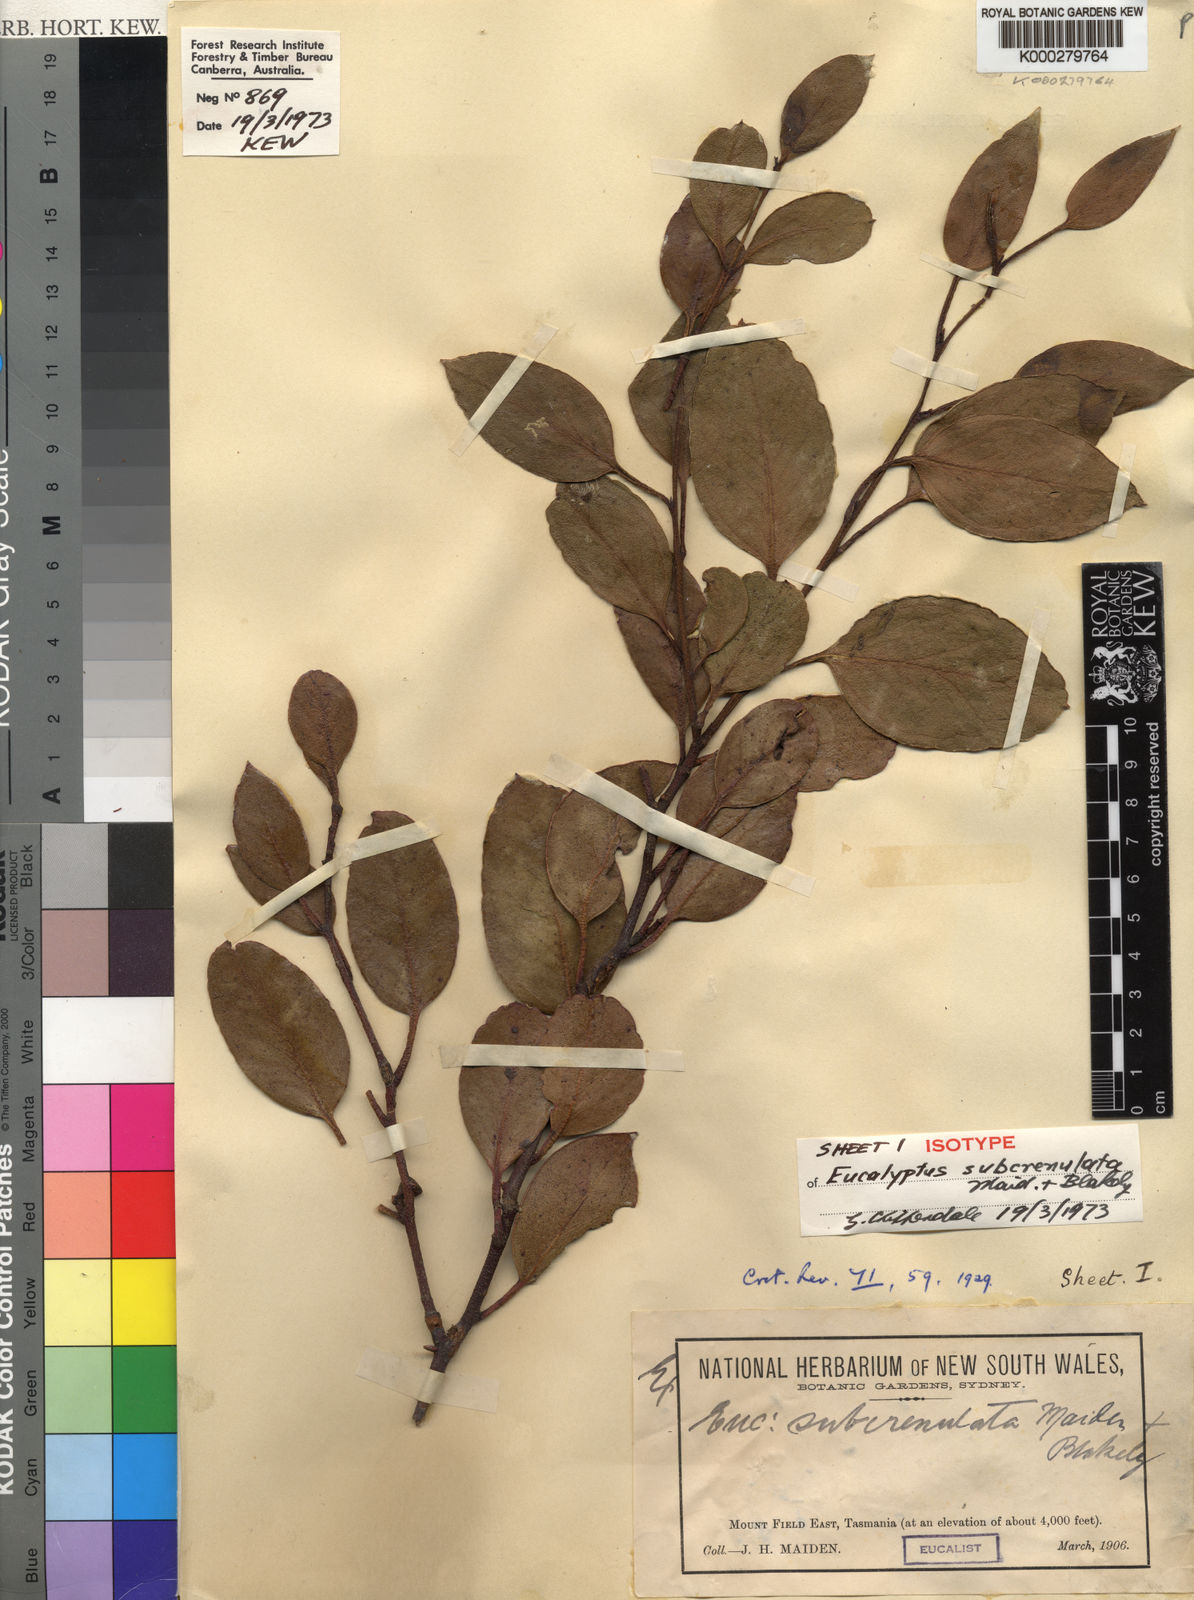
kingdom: Plantae
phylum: Tracheophyta
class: Magnoliopsida
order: Myrtales
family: Myrtaceae
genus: Eucalyptus
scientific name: Eucalyptus subcrenulata
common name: Alpine yellow gum
